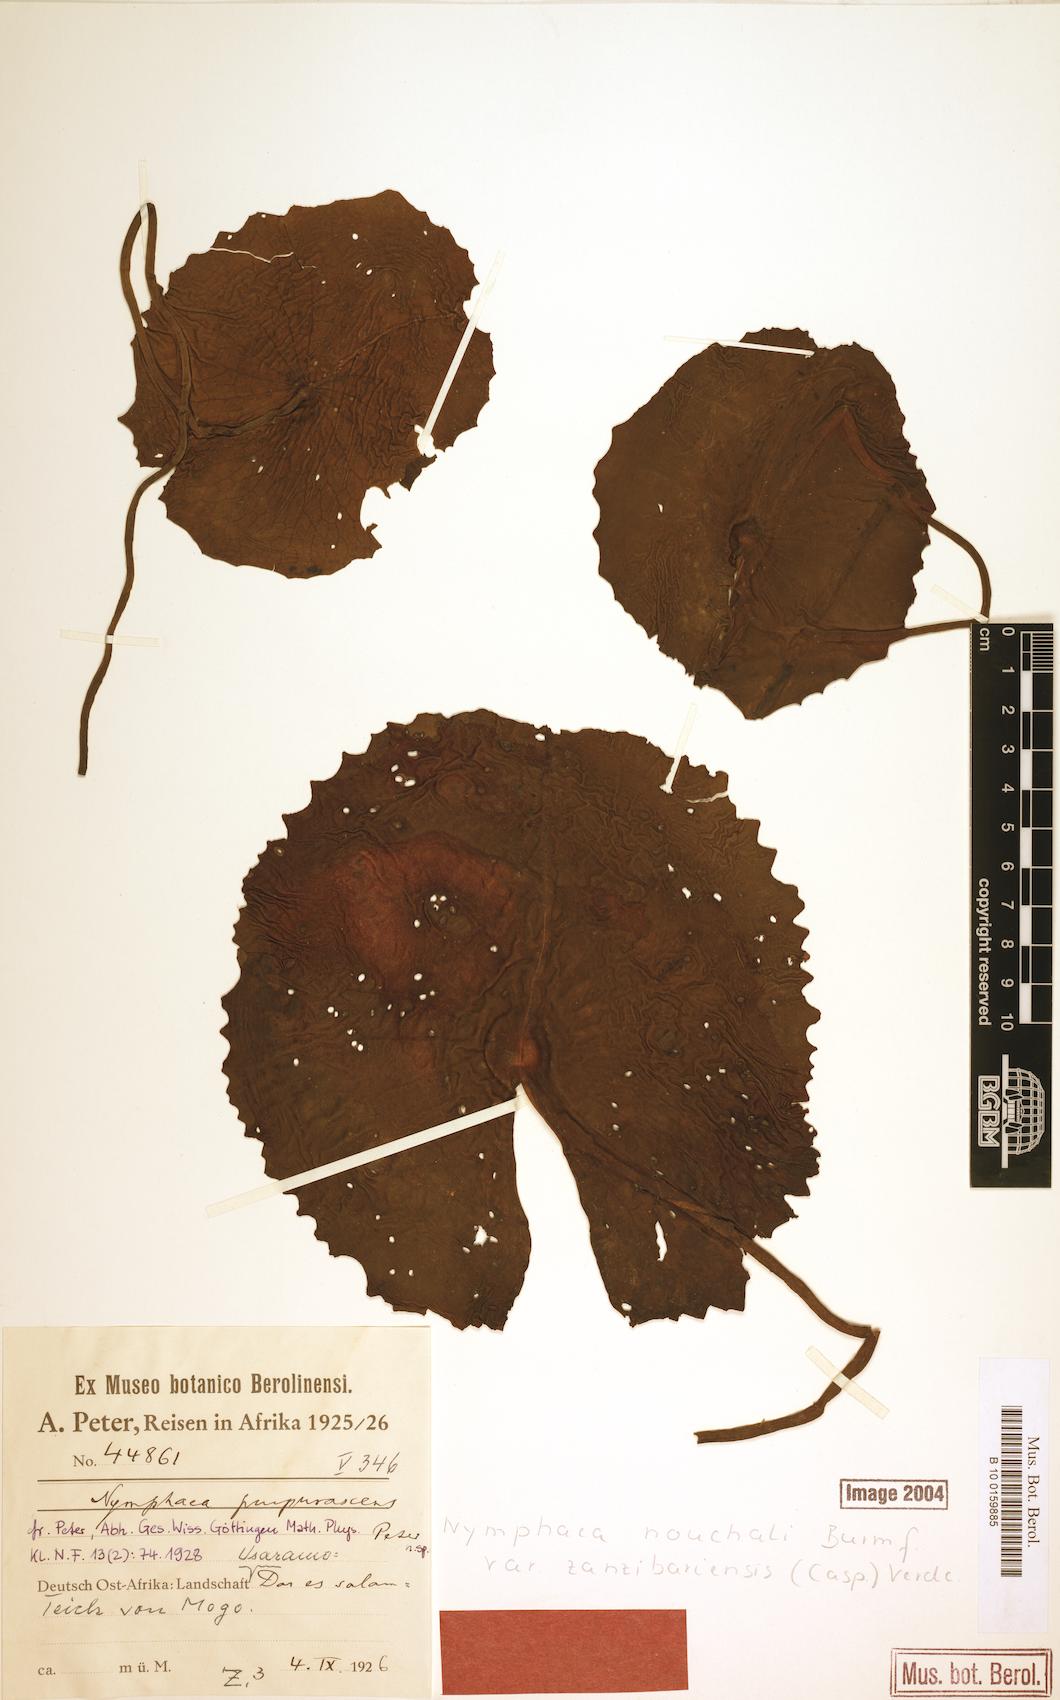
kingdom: Plantae
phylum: Tracheophyta
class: Magnoliopsida
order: Nymphaeales
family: Nymphaeaceae
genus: Nymphaea
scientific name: Nymphaea nouchali
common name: Blue lotus
